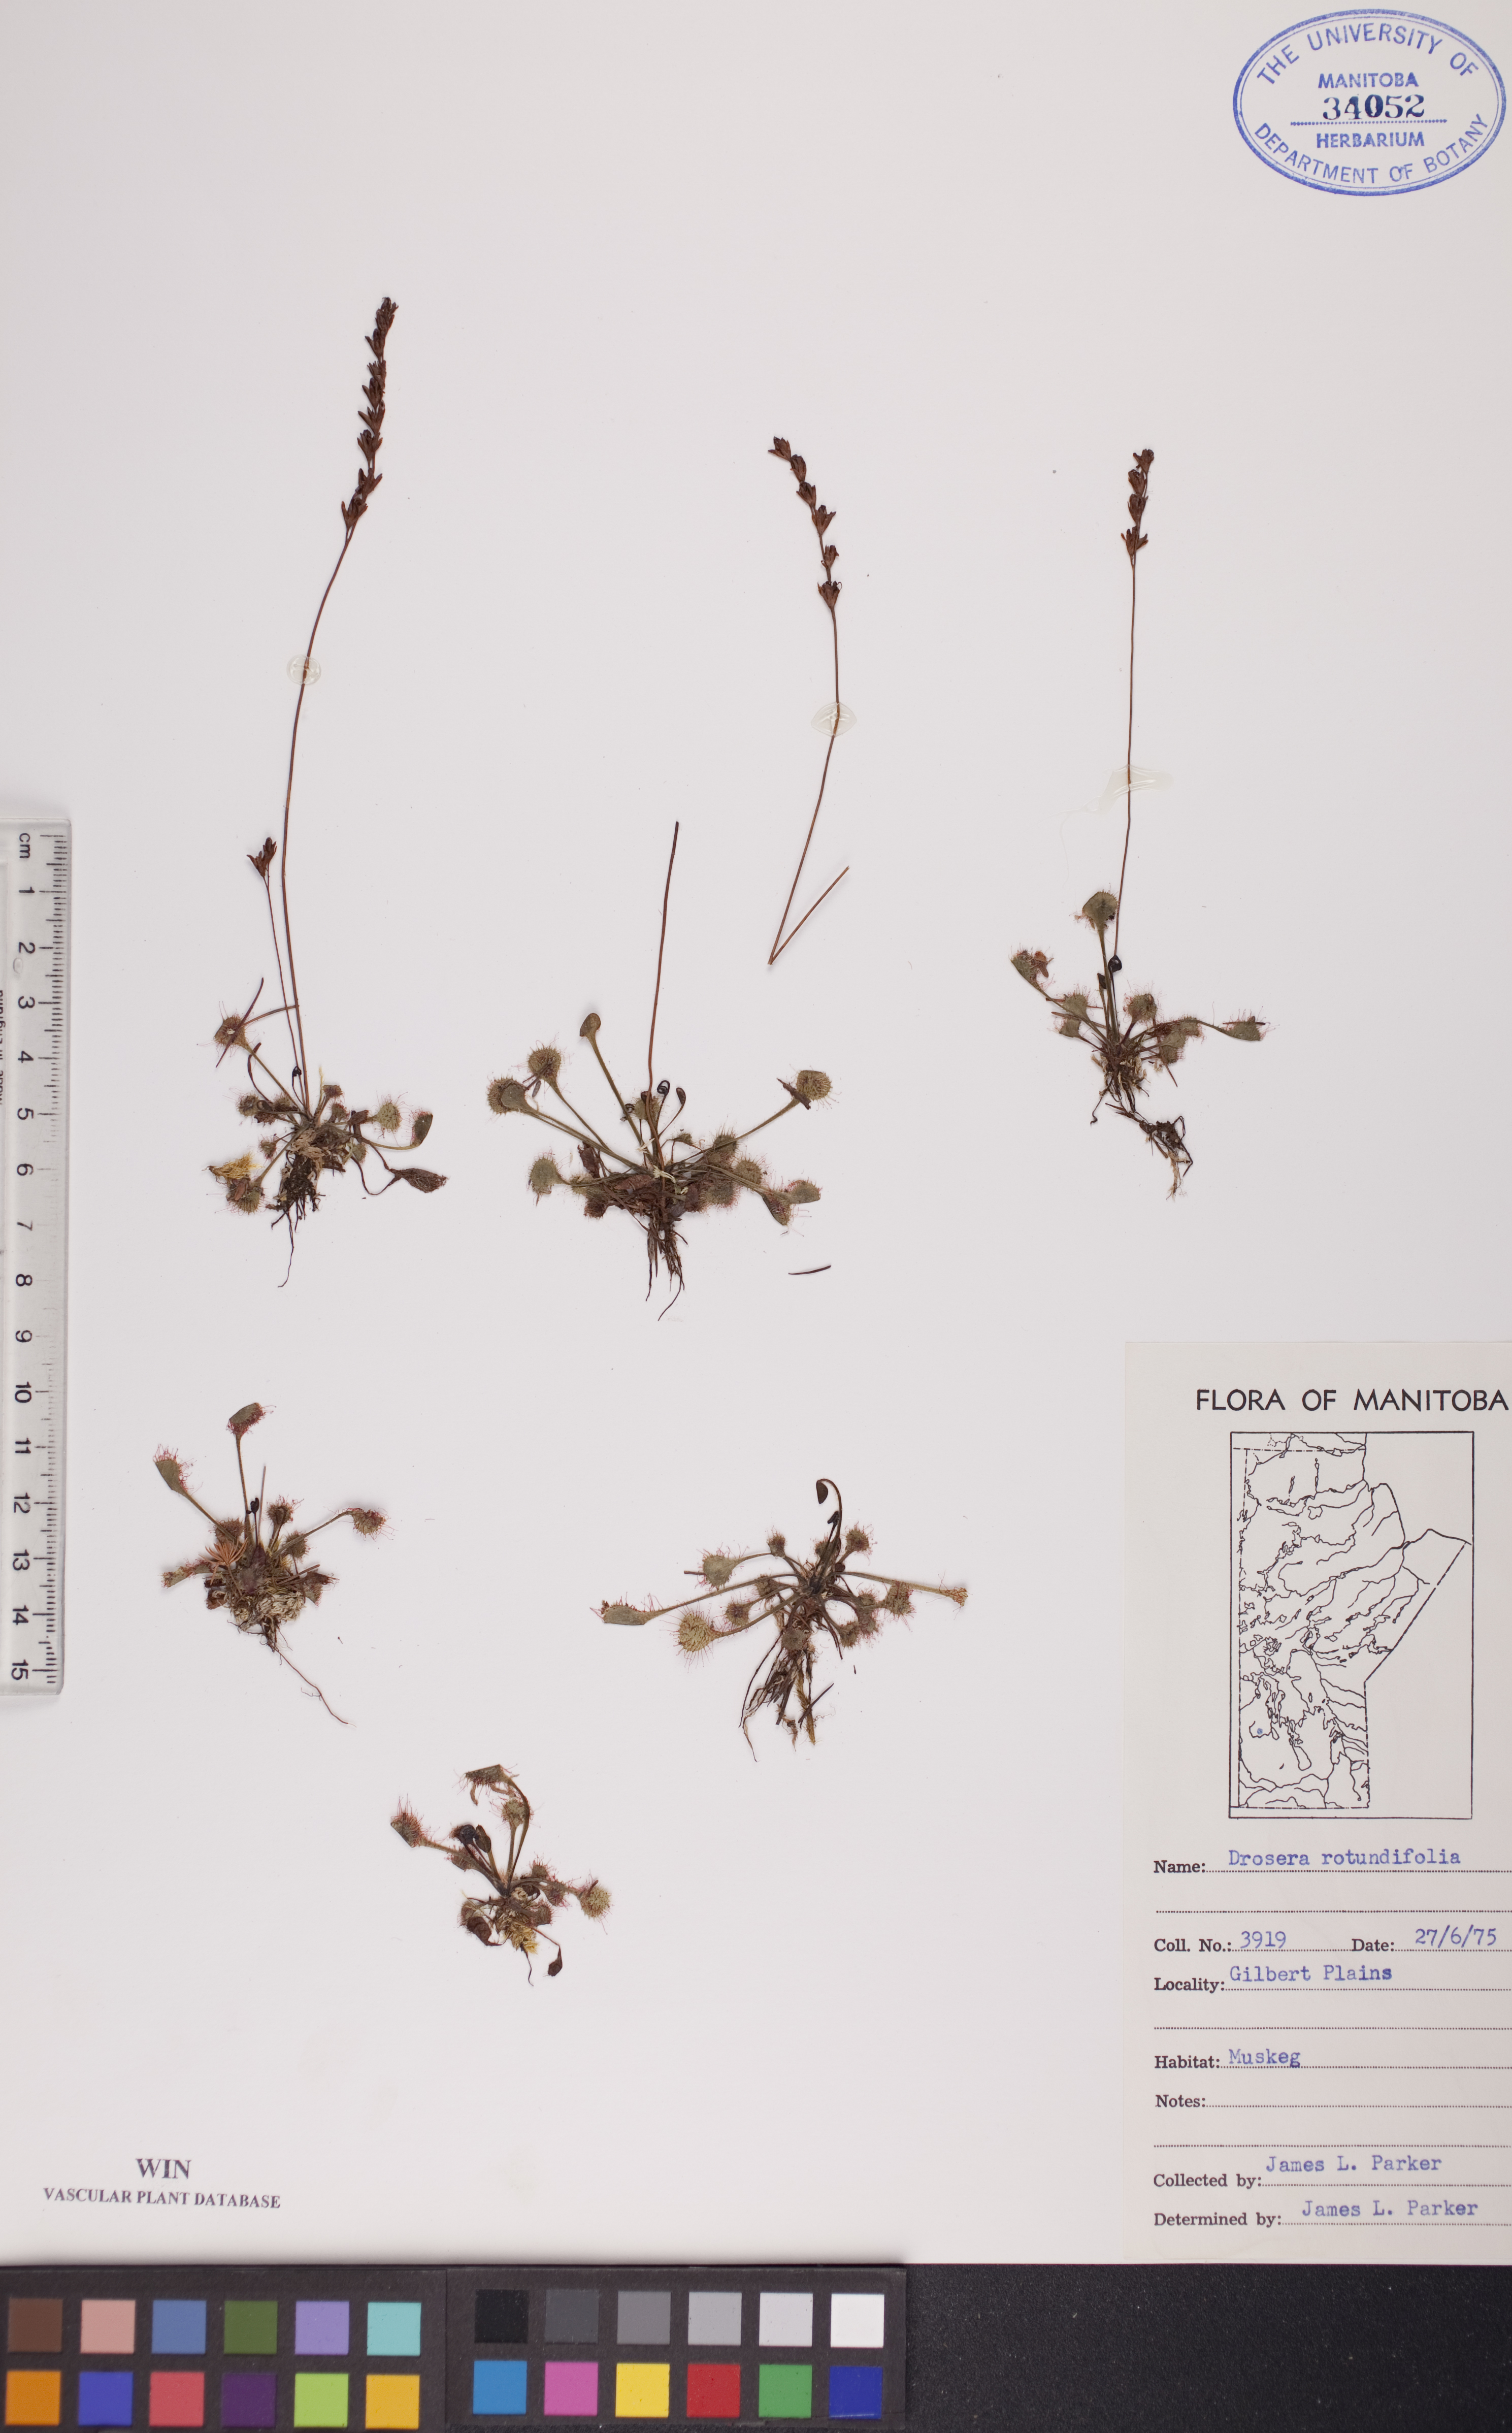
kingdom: Plantae
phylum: Tracheophyta
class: Magnoliopsida
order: Caryophyllales
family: Droseraceae
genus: Drosera
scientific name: Drosera rotundifolia
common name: Round-leaved sundew
